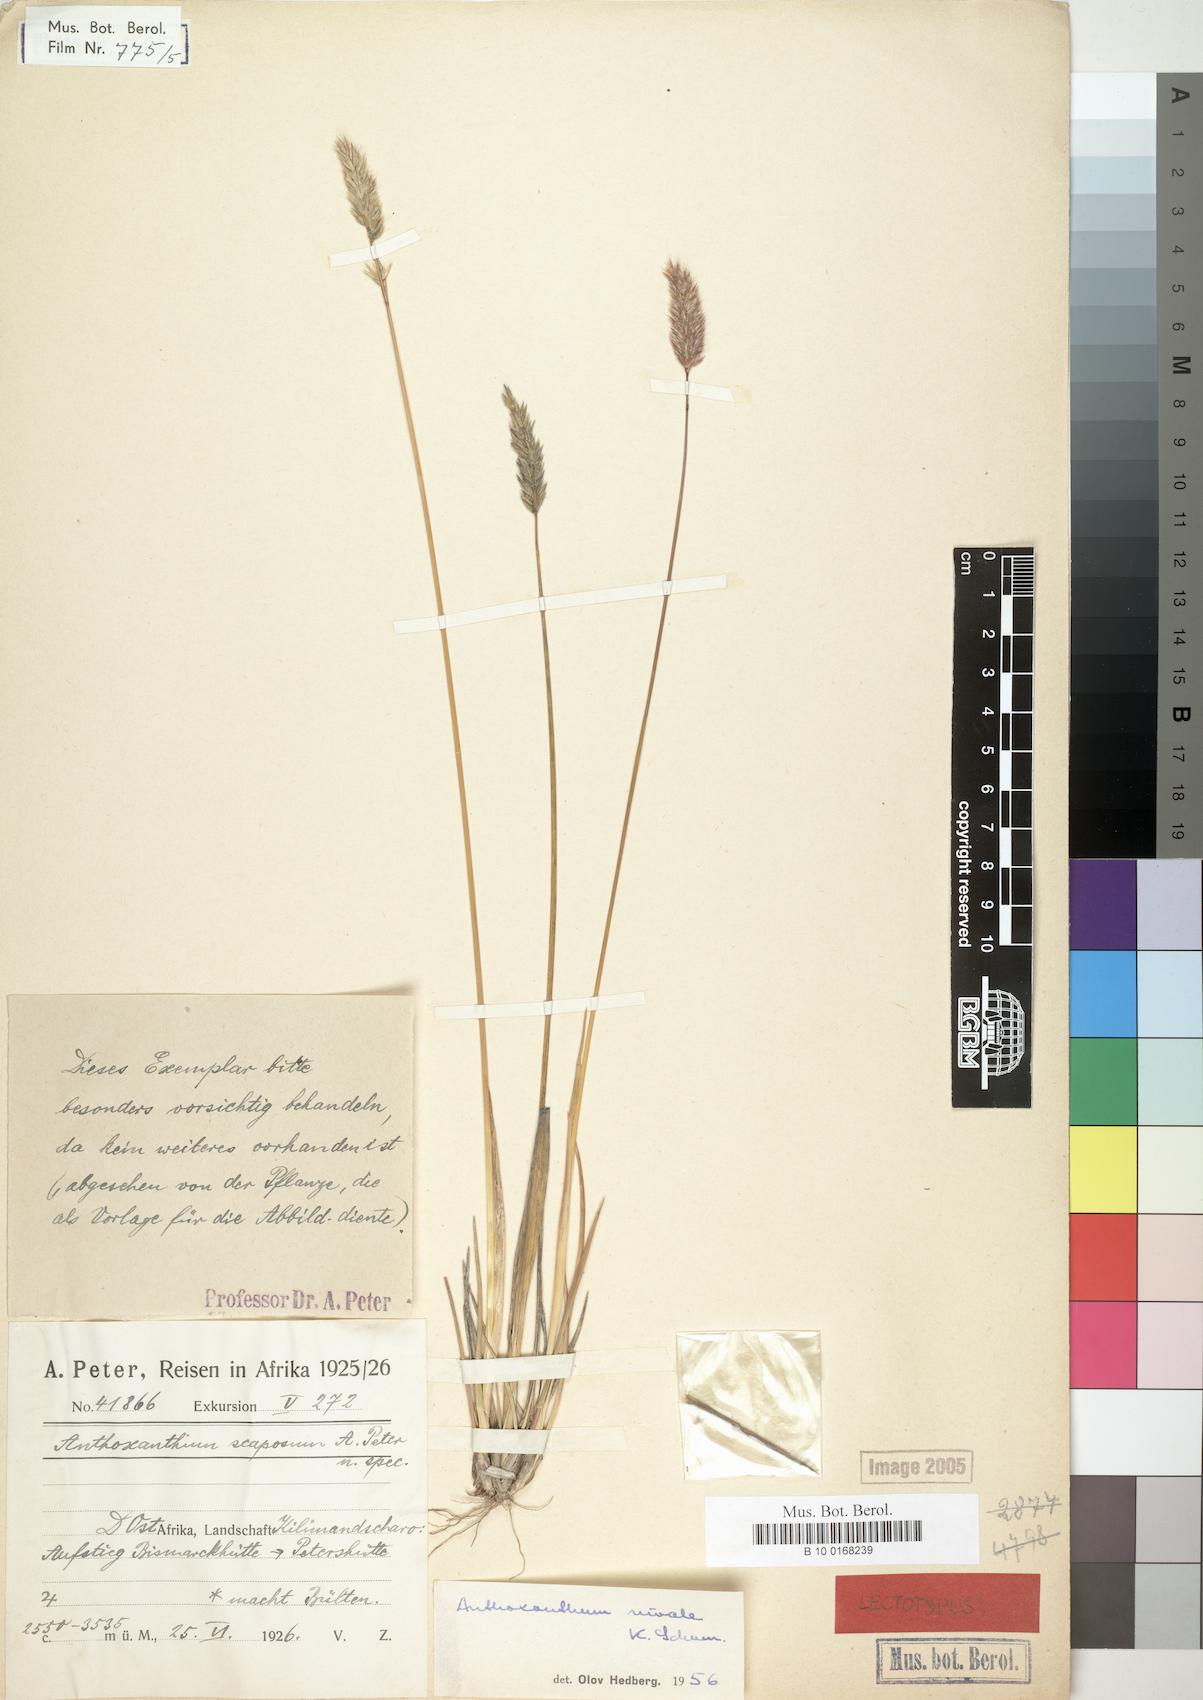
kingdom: Plantae
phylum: Tracheophyta
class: Liliopsida
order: Poales
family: Poaceae
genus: Anthoxanthum
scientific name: Anthoxanthum nivale
